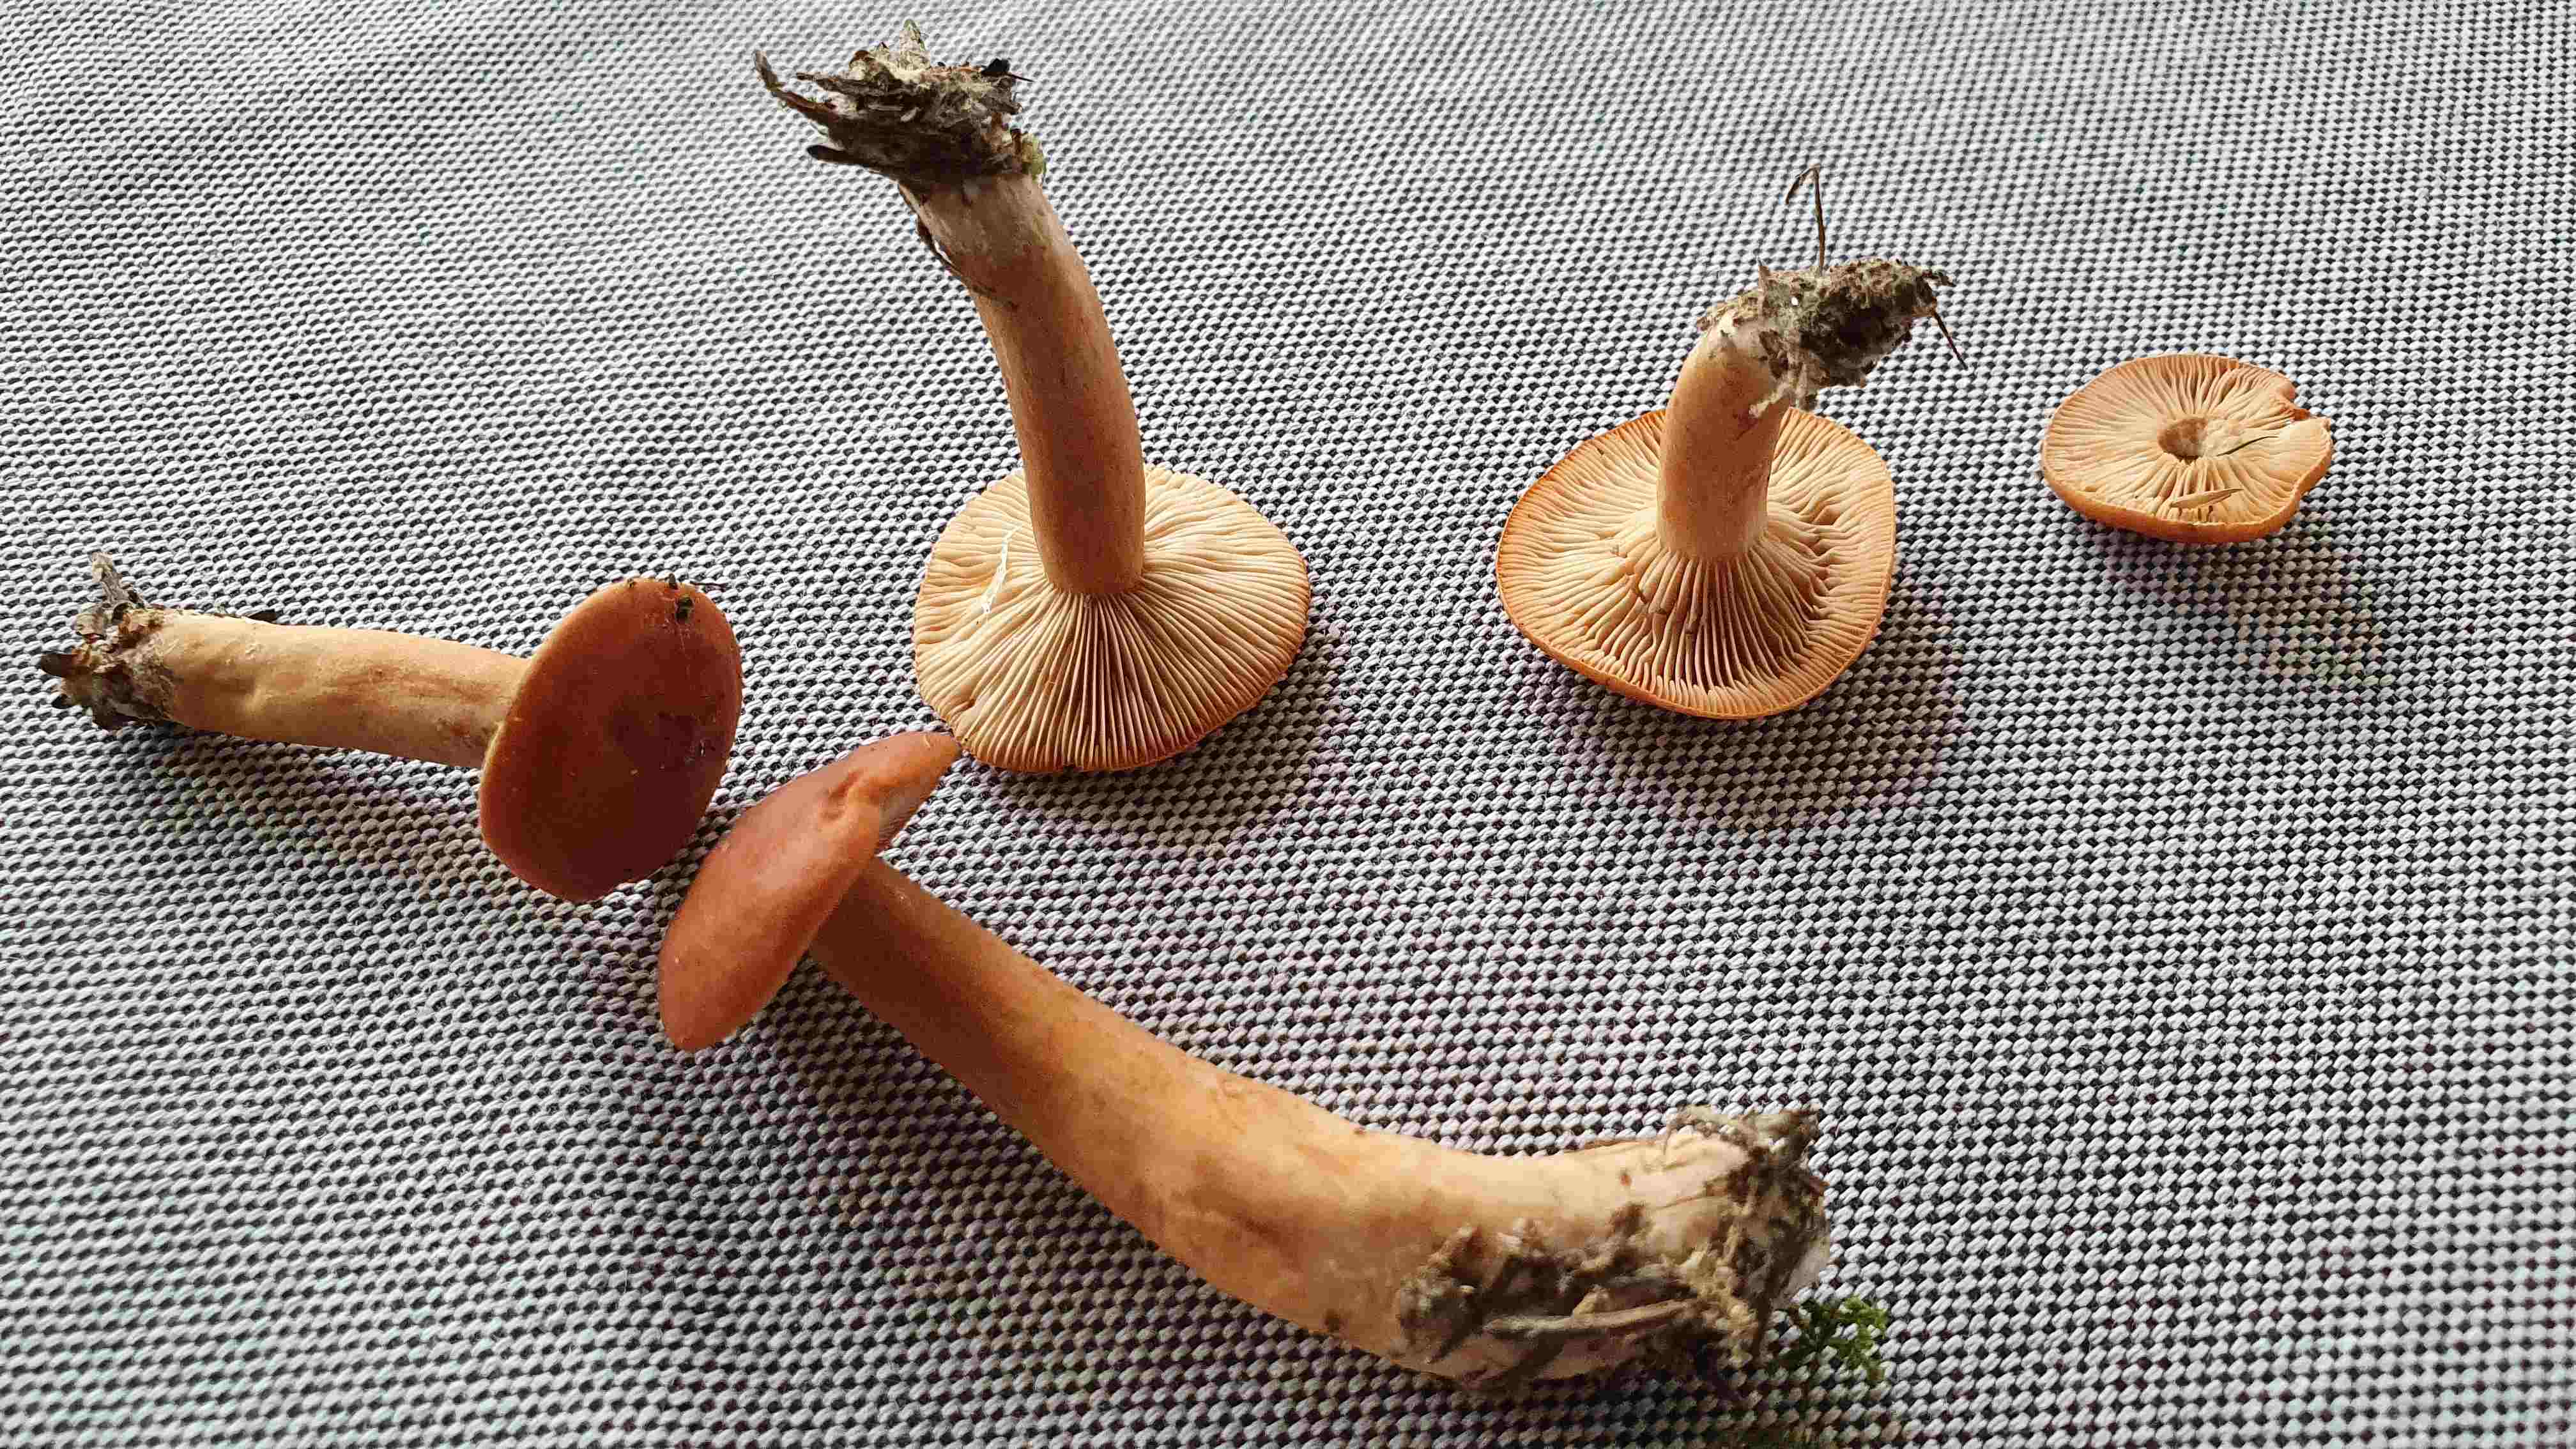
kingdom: Fungi
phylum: Basidiomycota
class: Agaricomycetes
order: Russulales
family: Russulaceae
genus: Lactarius
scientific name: Lactarius aurantiacus
